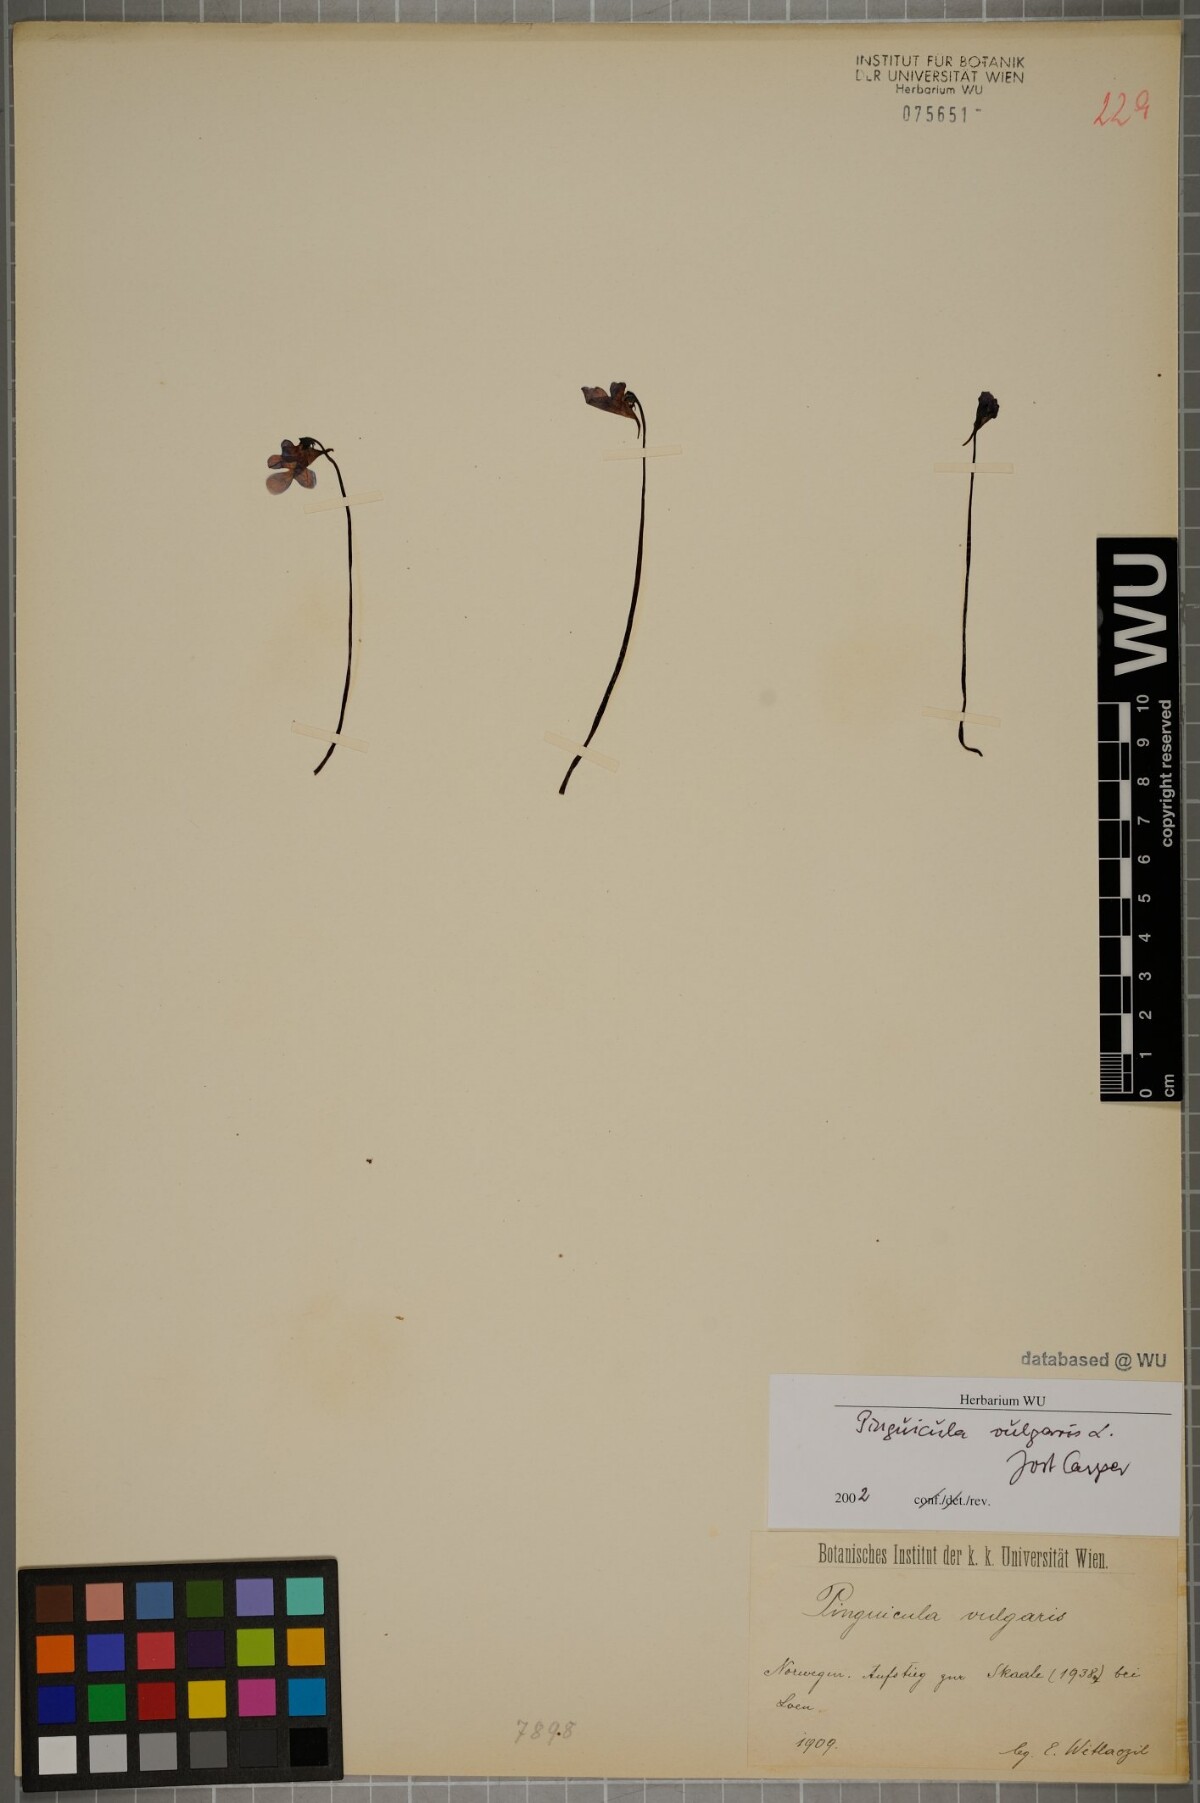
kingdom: Plantae
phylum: Tracheophyta
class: Magnoliopsida
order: Lamiales
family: Lentibulariaceae
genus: Pinguicula
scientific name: Pinguicula vulgaris
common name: Common butterwort
